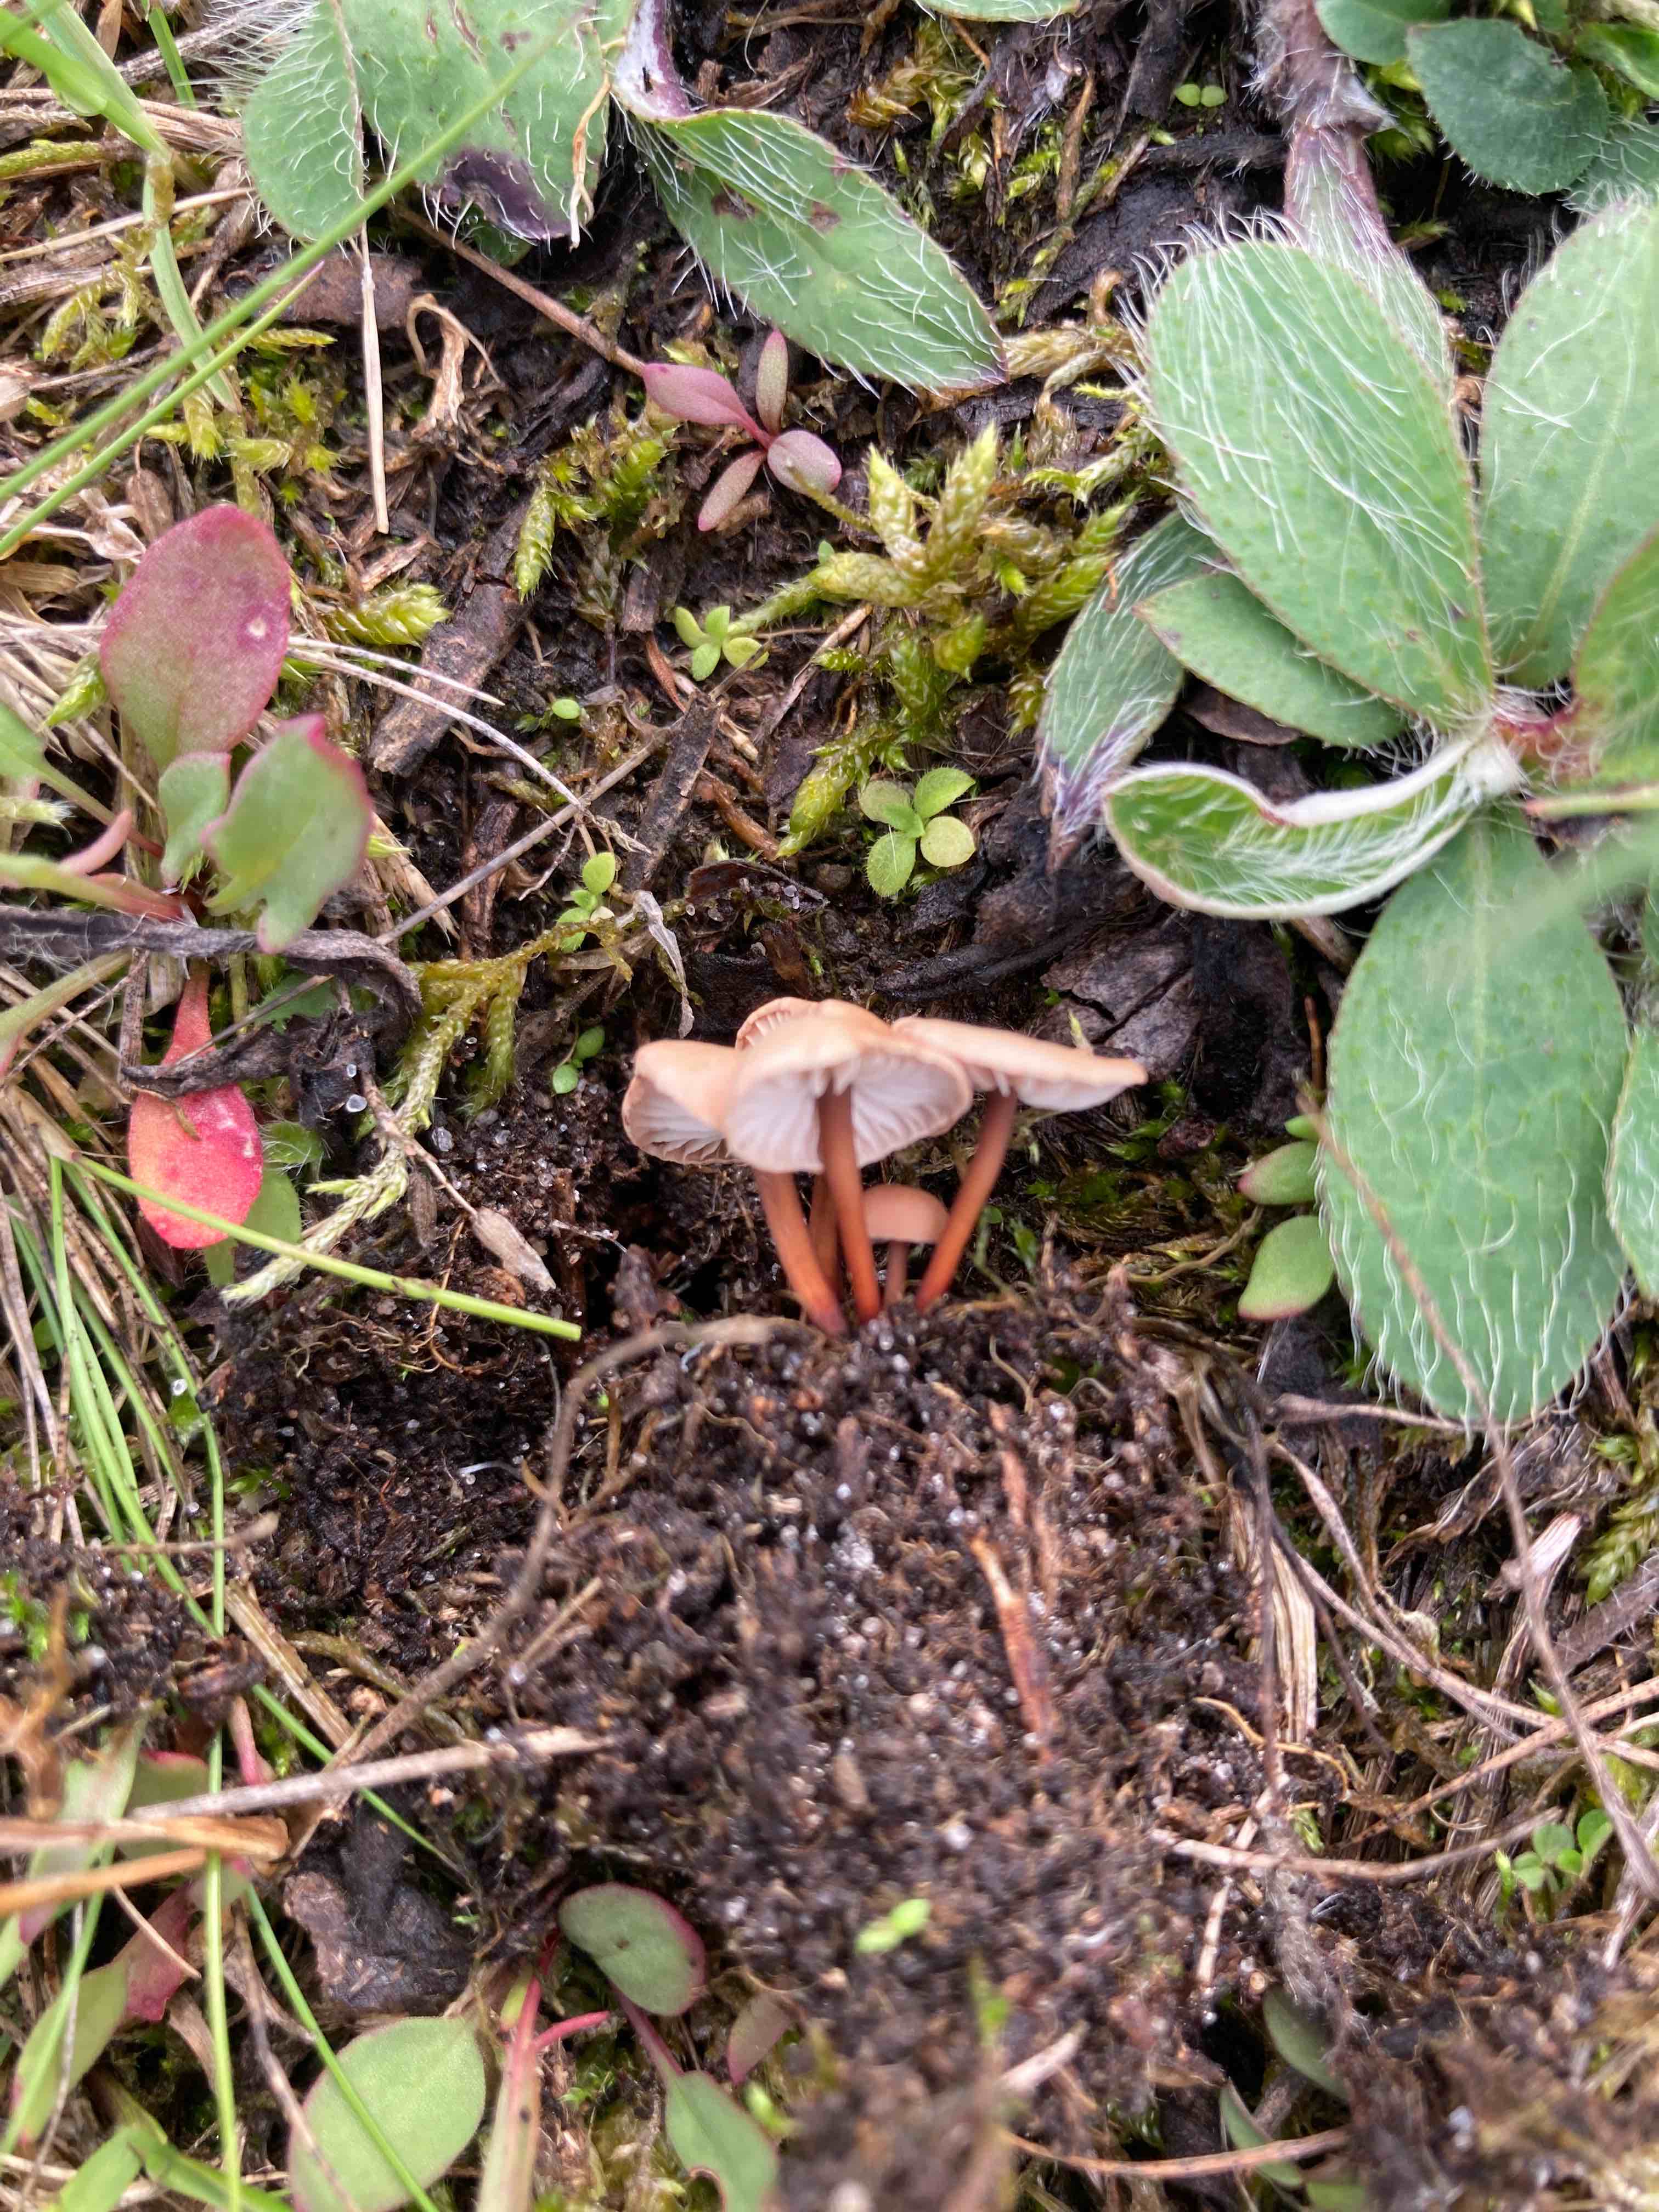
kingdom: Fungi
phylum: Basidiomycota
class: Agaricomycetes
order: Agaricales
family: Omphalotaceae
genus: Mycetinis
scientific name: Mycetinis scorodonius
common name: lille løghat
